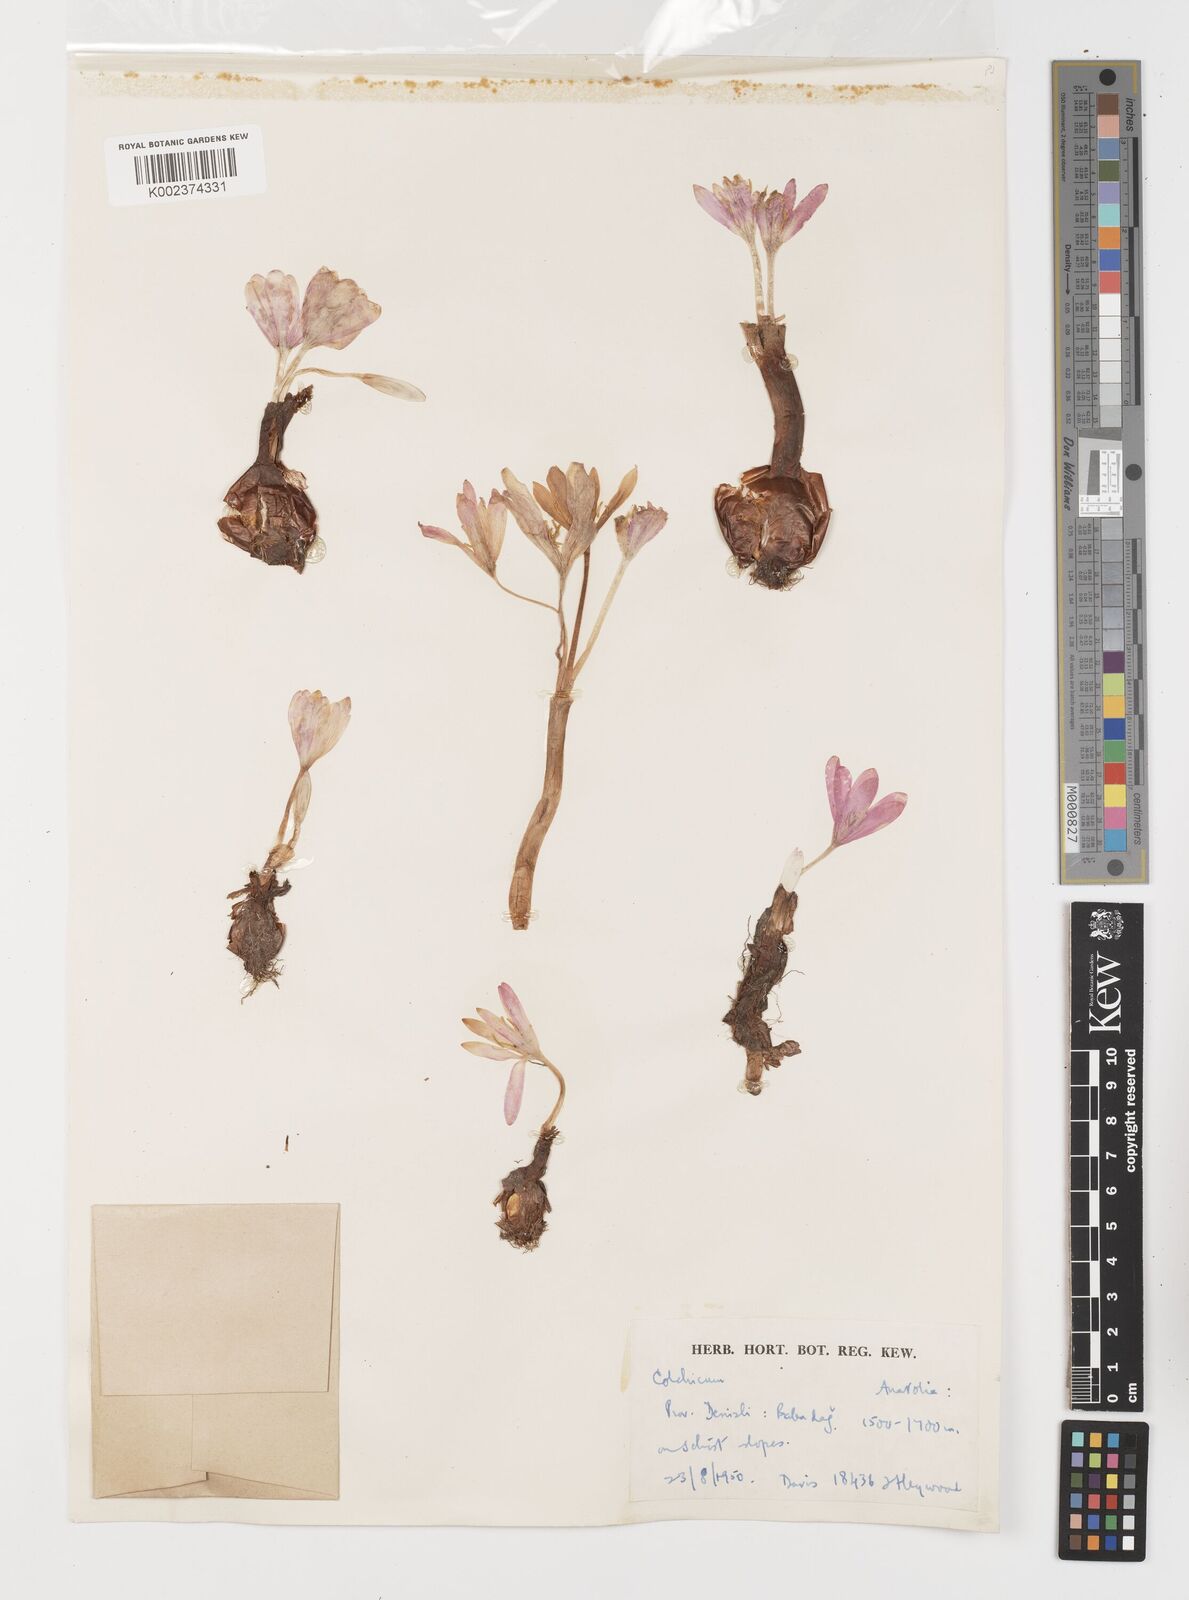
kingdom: Plantae
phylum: Tracheophyta
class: Liliopsida
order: Liliales
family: Colchicaceae
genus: Colchicum
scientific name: Colchicum
